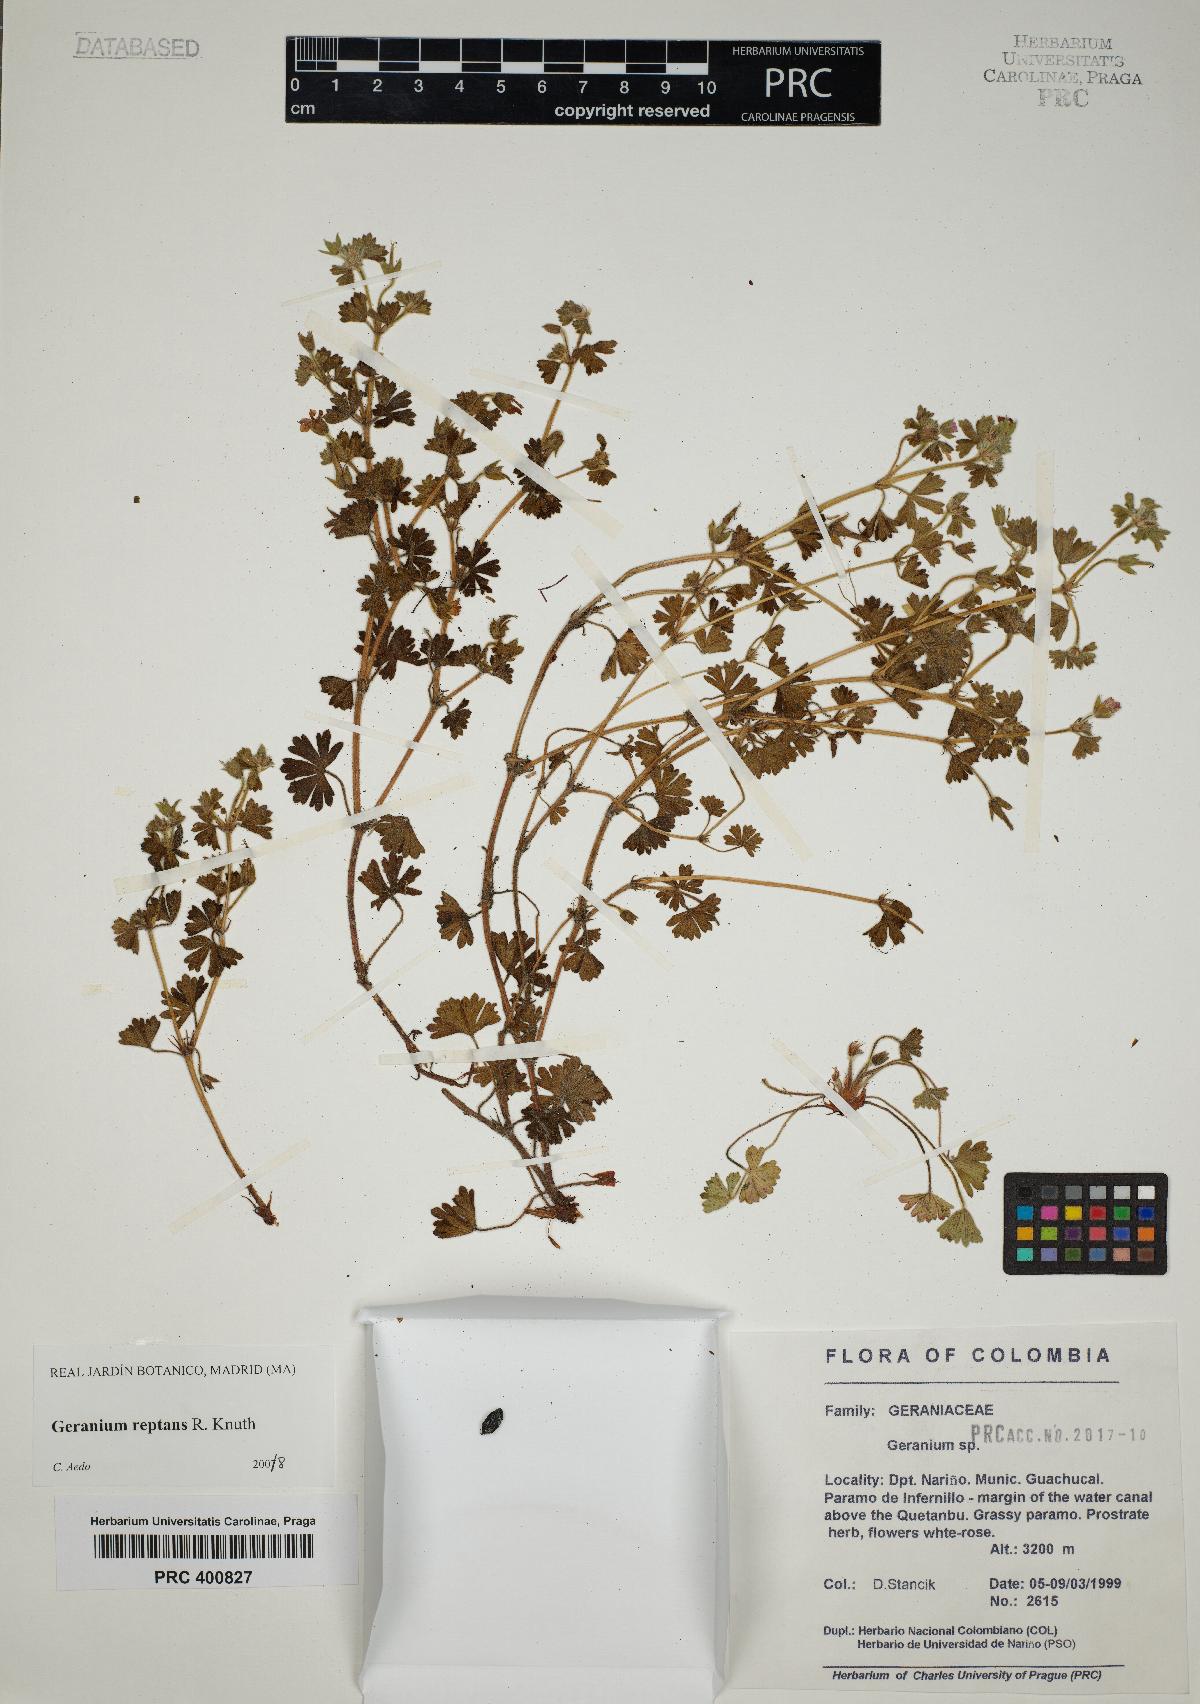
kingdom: Plantae
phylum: Tracheophyta
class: Magnoliopsida
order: Geraniales
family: Geraniaceae
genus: Geranium
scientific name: Geranium reptans
